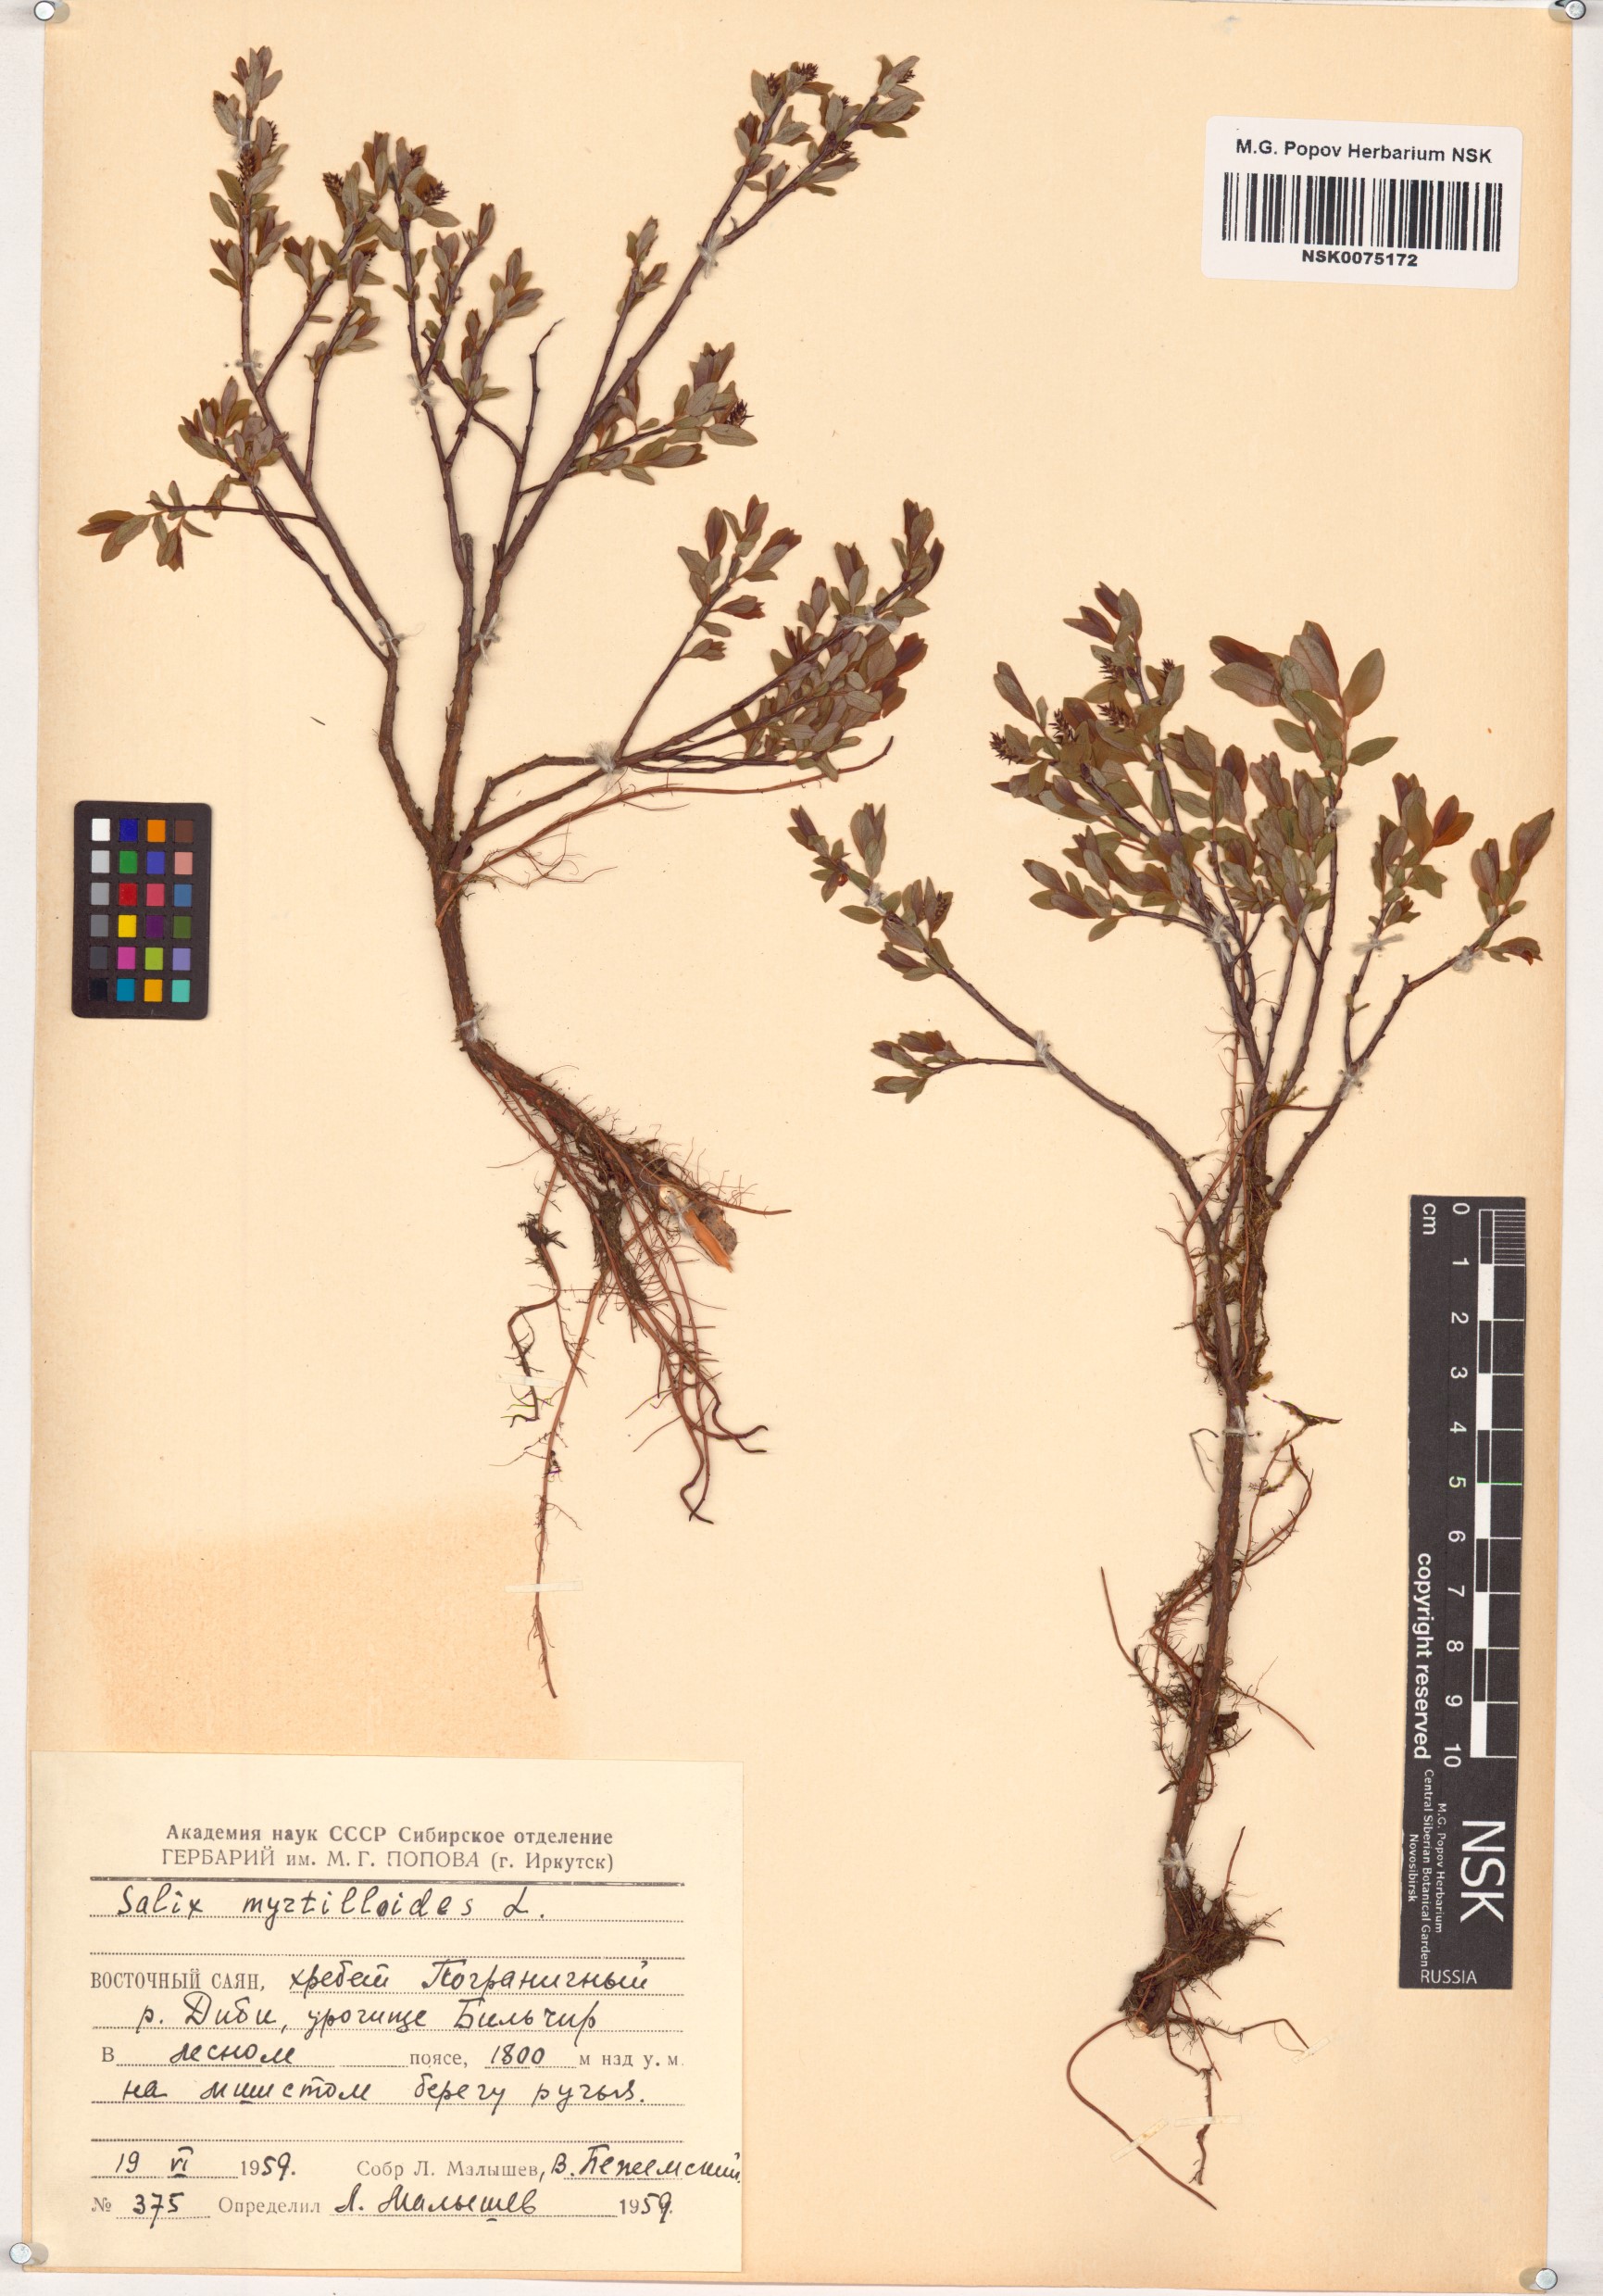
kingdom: Plantae
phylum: Tracheophyta
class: Magnoliopsida
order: Malpighiales
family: Salicaceae
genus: Salix
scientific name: Salix myrtilloides
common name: Myrtle-leaved willow
